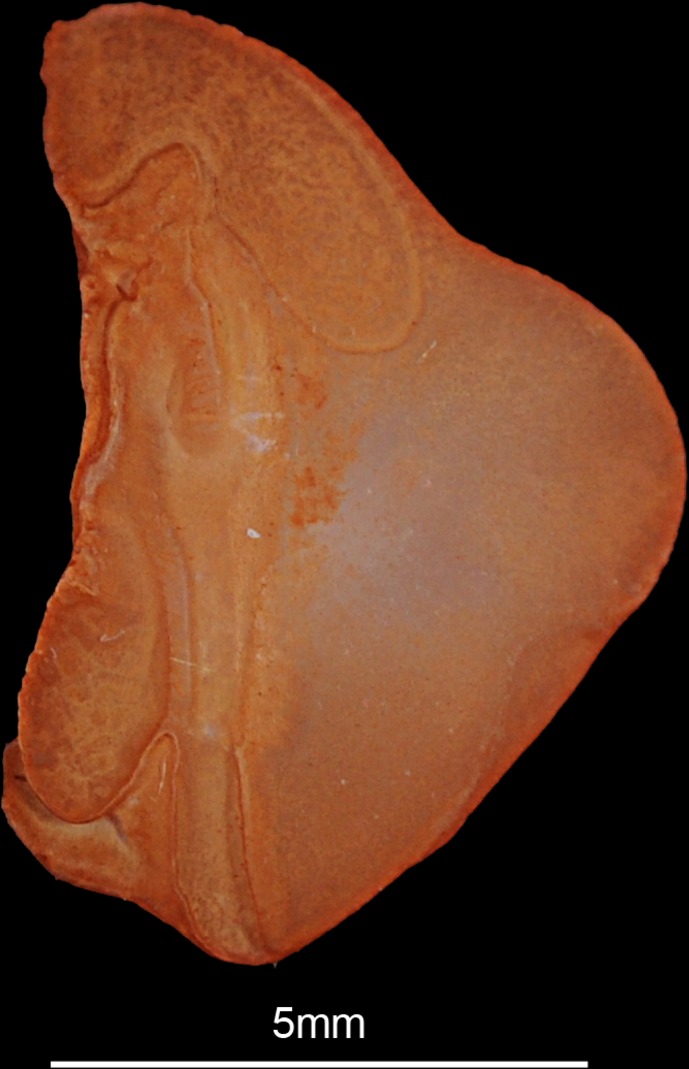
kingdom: Animalia
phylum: Chordata
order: Beryciformes
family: Holocentridae
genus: Myripristis
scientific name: Myripristis murdjan
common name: Big-eye soldierfish
